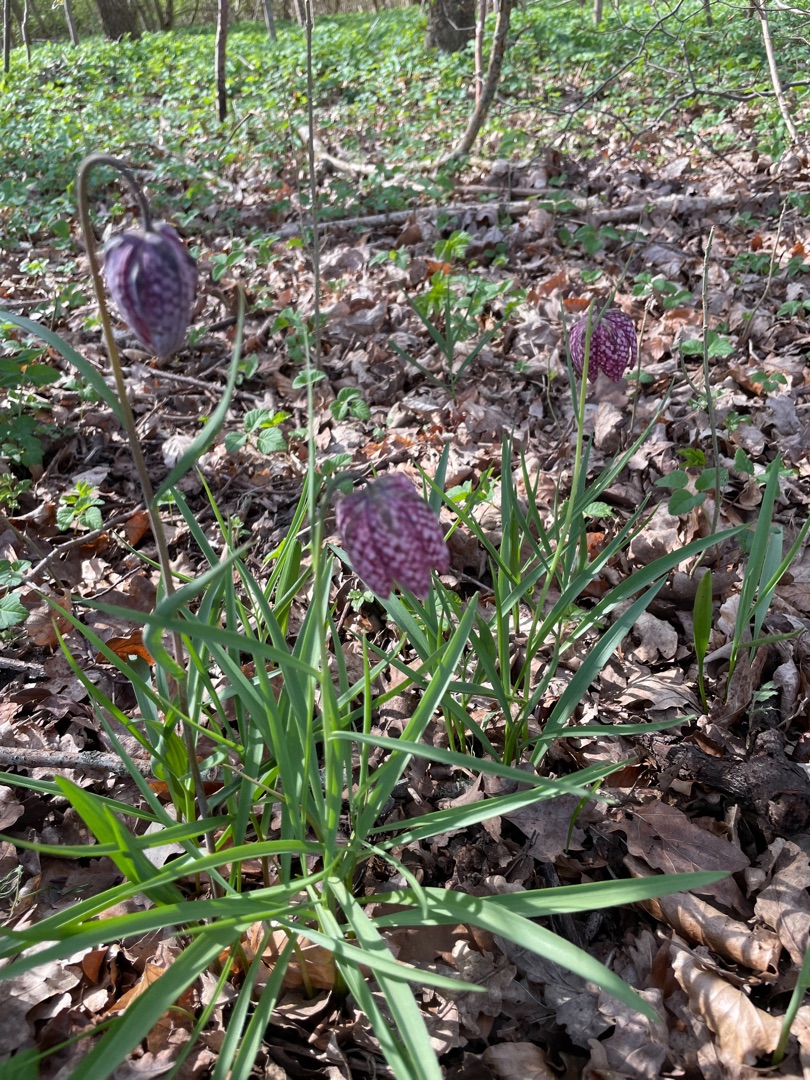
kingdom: Plantae
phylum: Tracheophyta
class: Liliopsida
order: Liliales
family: Liliaceae
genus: Fritillaria
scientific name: Fritillaria meleagris
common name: Vibeæg
